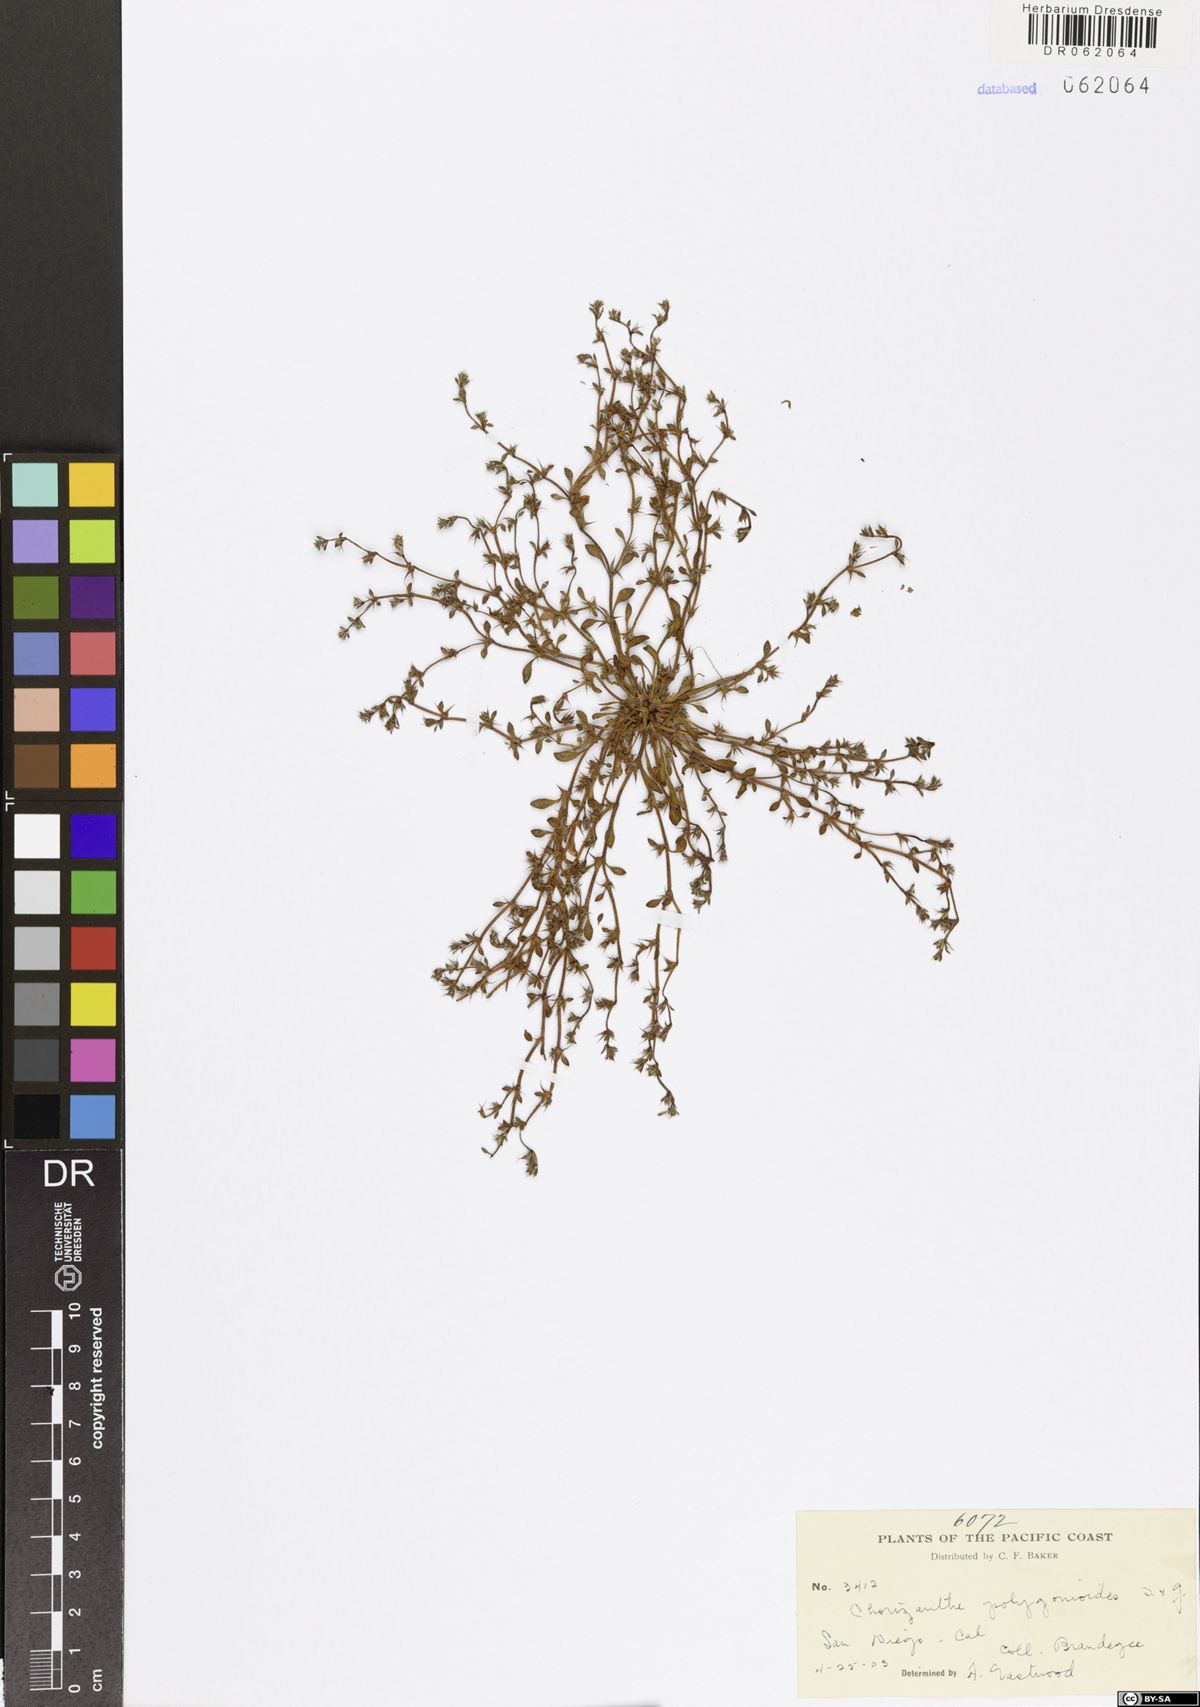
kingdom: Plantae
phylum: Tracheophyta
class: Magnoliopsida
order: Caryophyllales
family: Polygonaceae
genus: Chorizanthe
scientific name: Chorizanthe polygonoides
